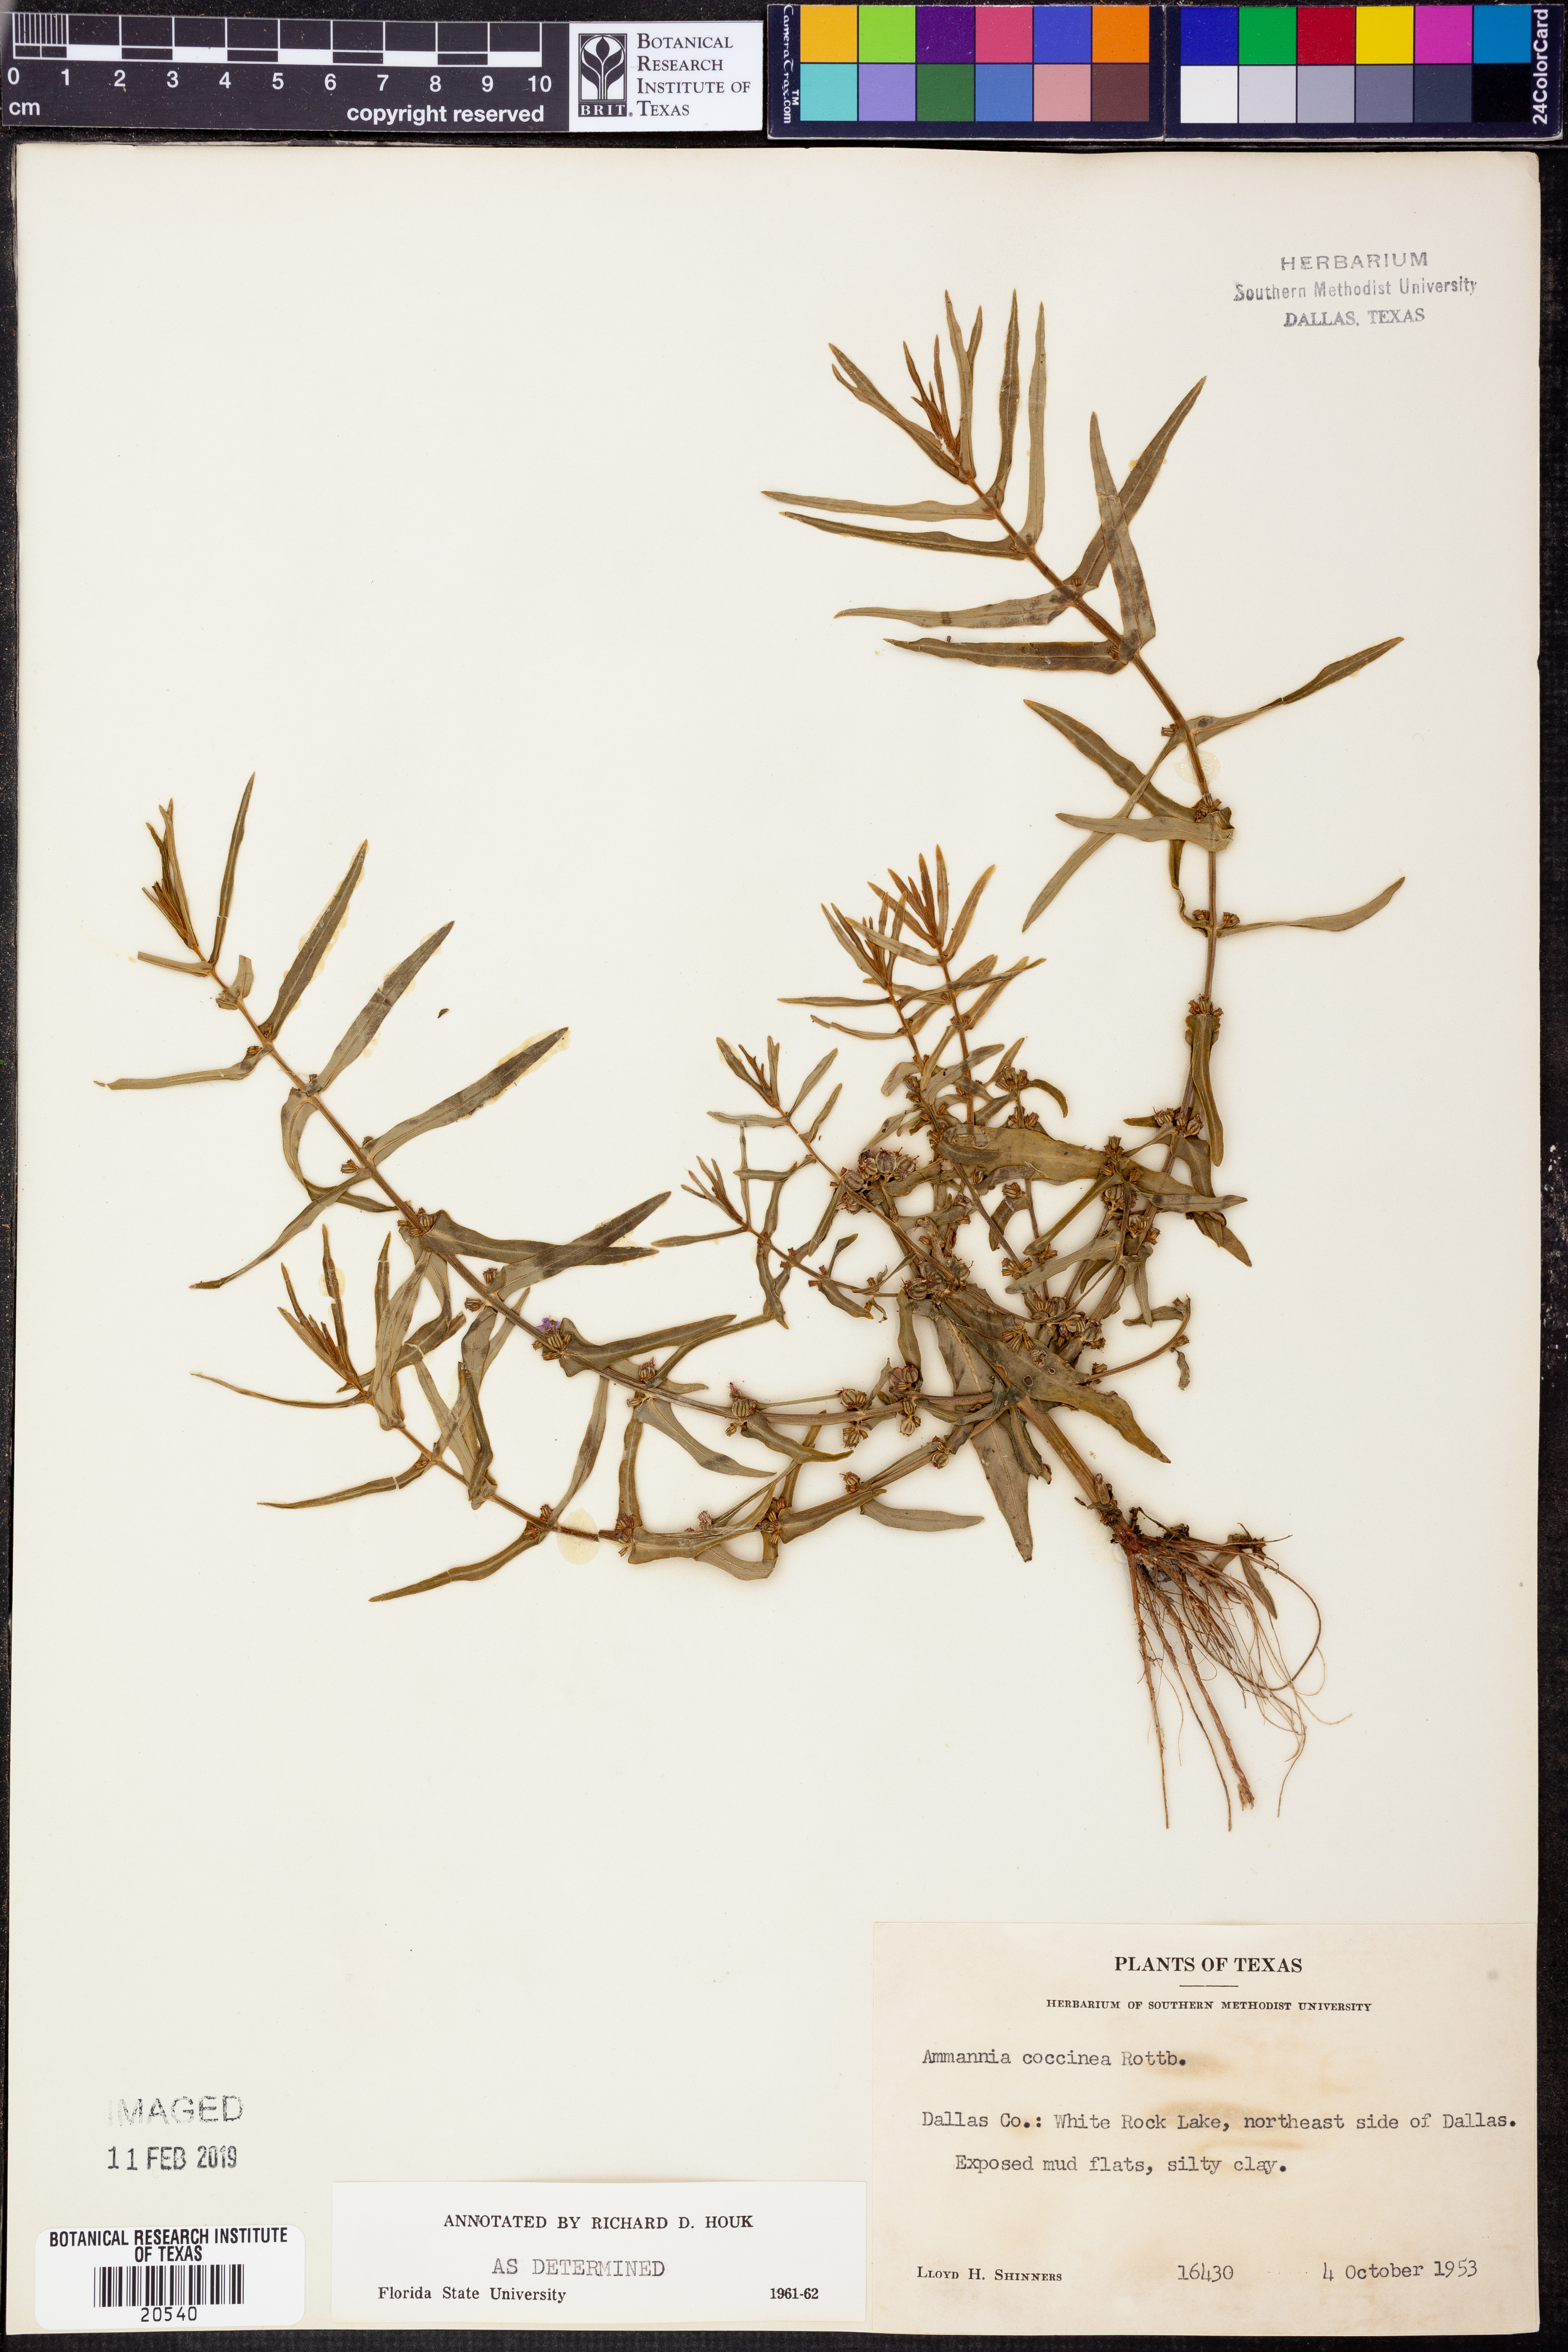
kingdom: Plantae
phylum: Tracheophyta
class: Magnoliopsida
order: Myrtales
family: Lythraceae
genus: Ammannia
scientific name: Ammannia coccinea
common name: Valley redstem
